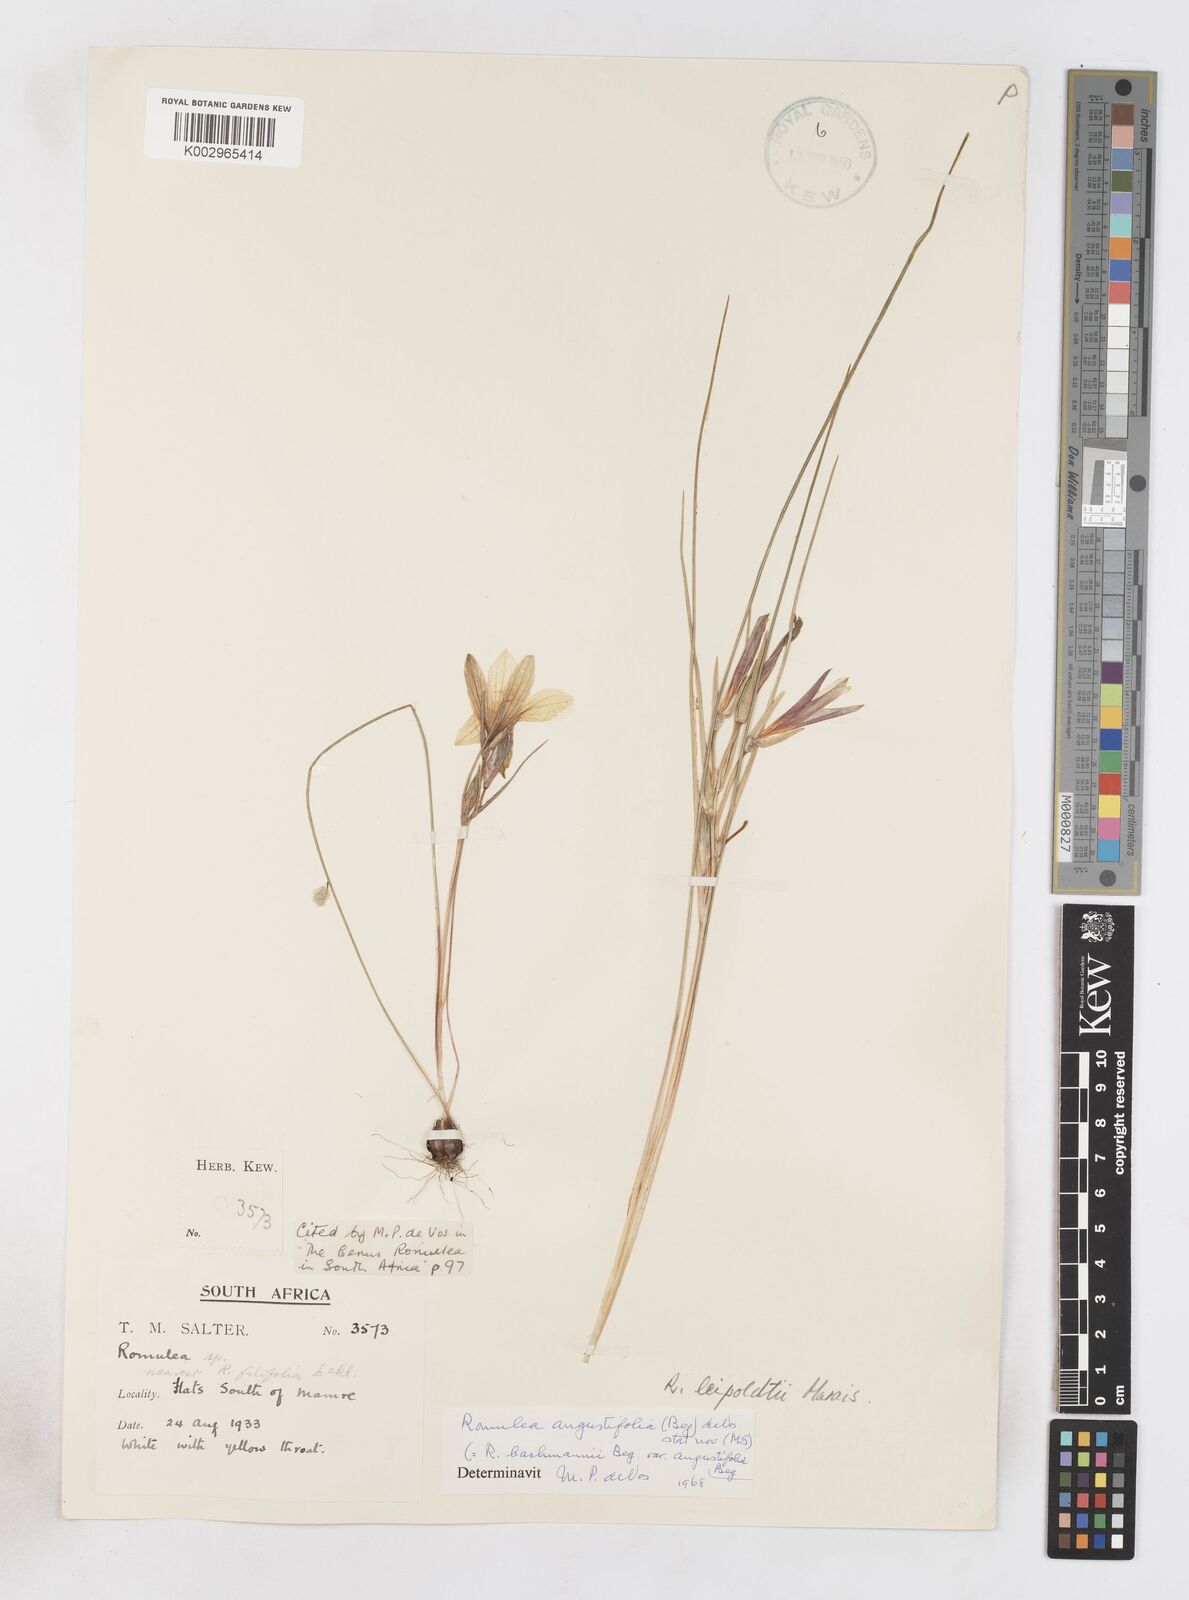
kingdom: Plantae
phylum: Tracheophyta
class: Liliopsida
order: Asparagales
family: Iridaceae
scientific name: Iridaceae
